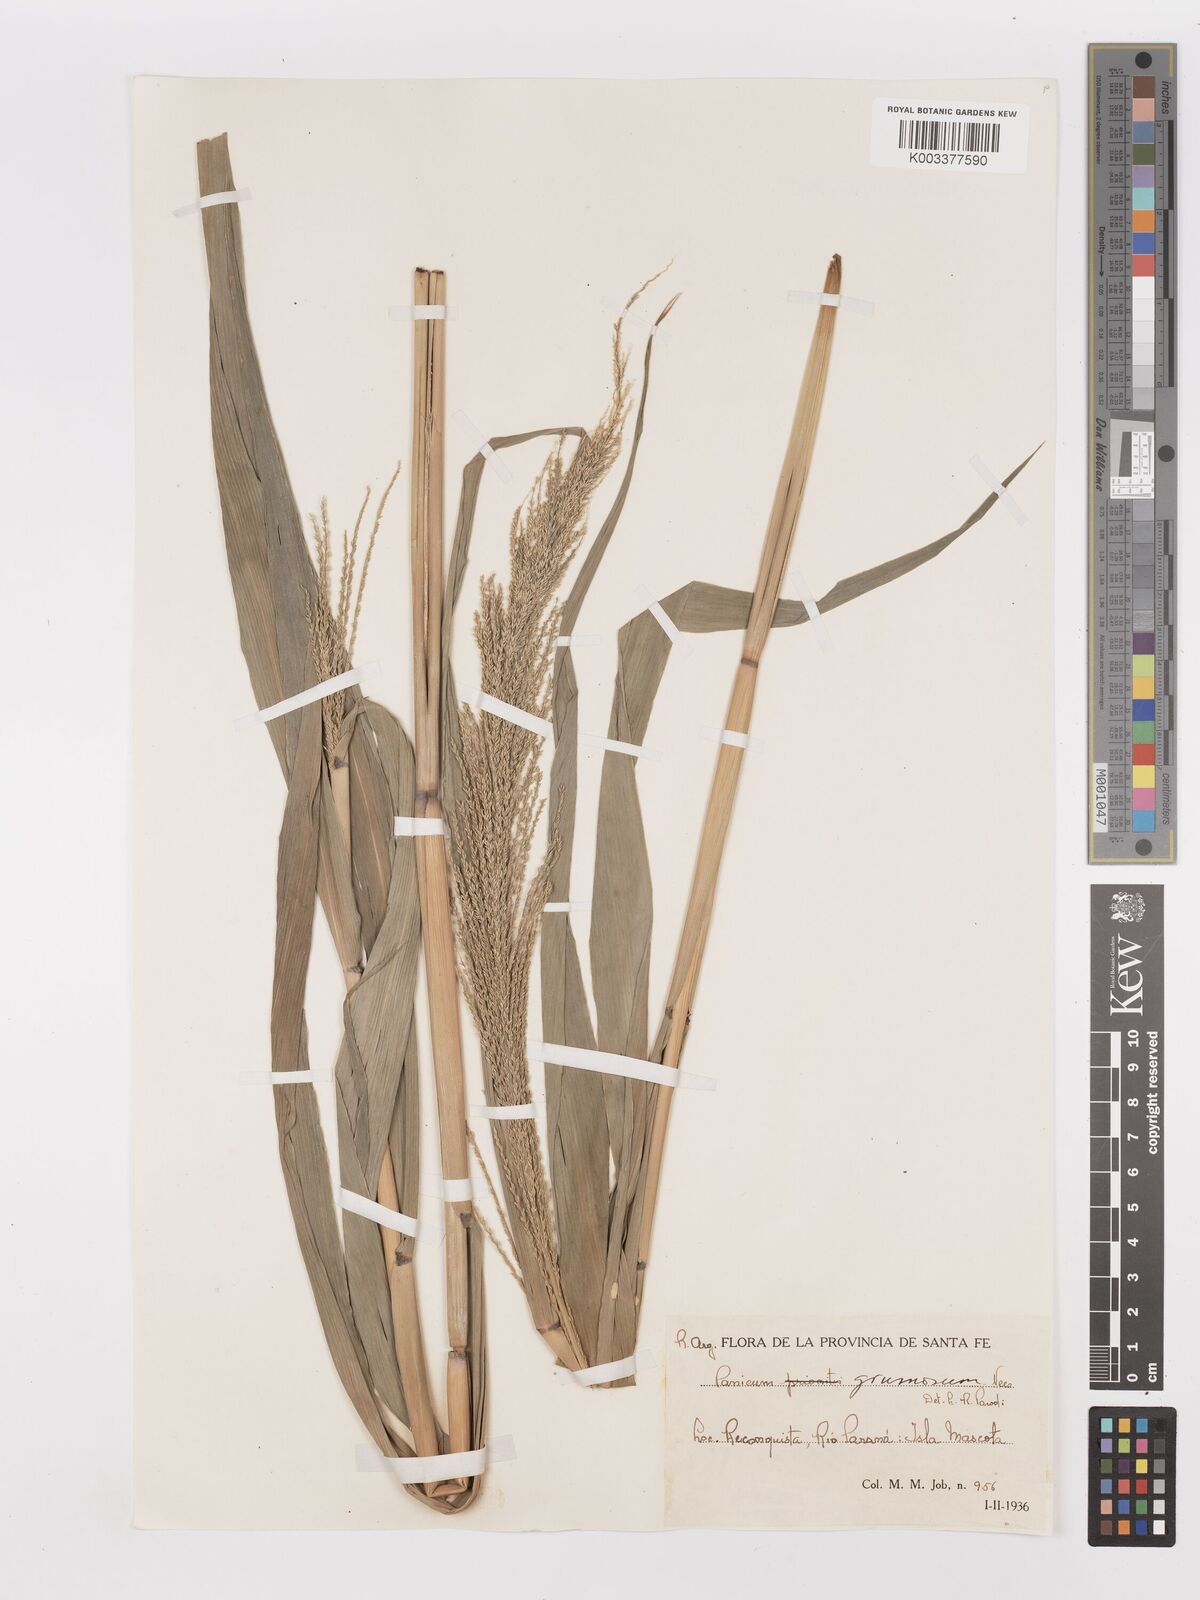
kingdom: Plantae
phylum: Tracheophyta
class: Liliopsida
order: Poales
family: Poaceae
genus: Hymenachne
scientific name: Hymenachne grumosa
